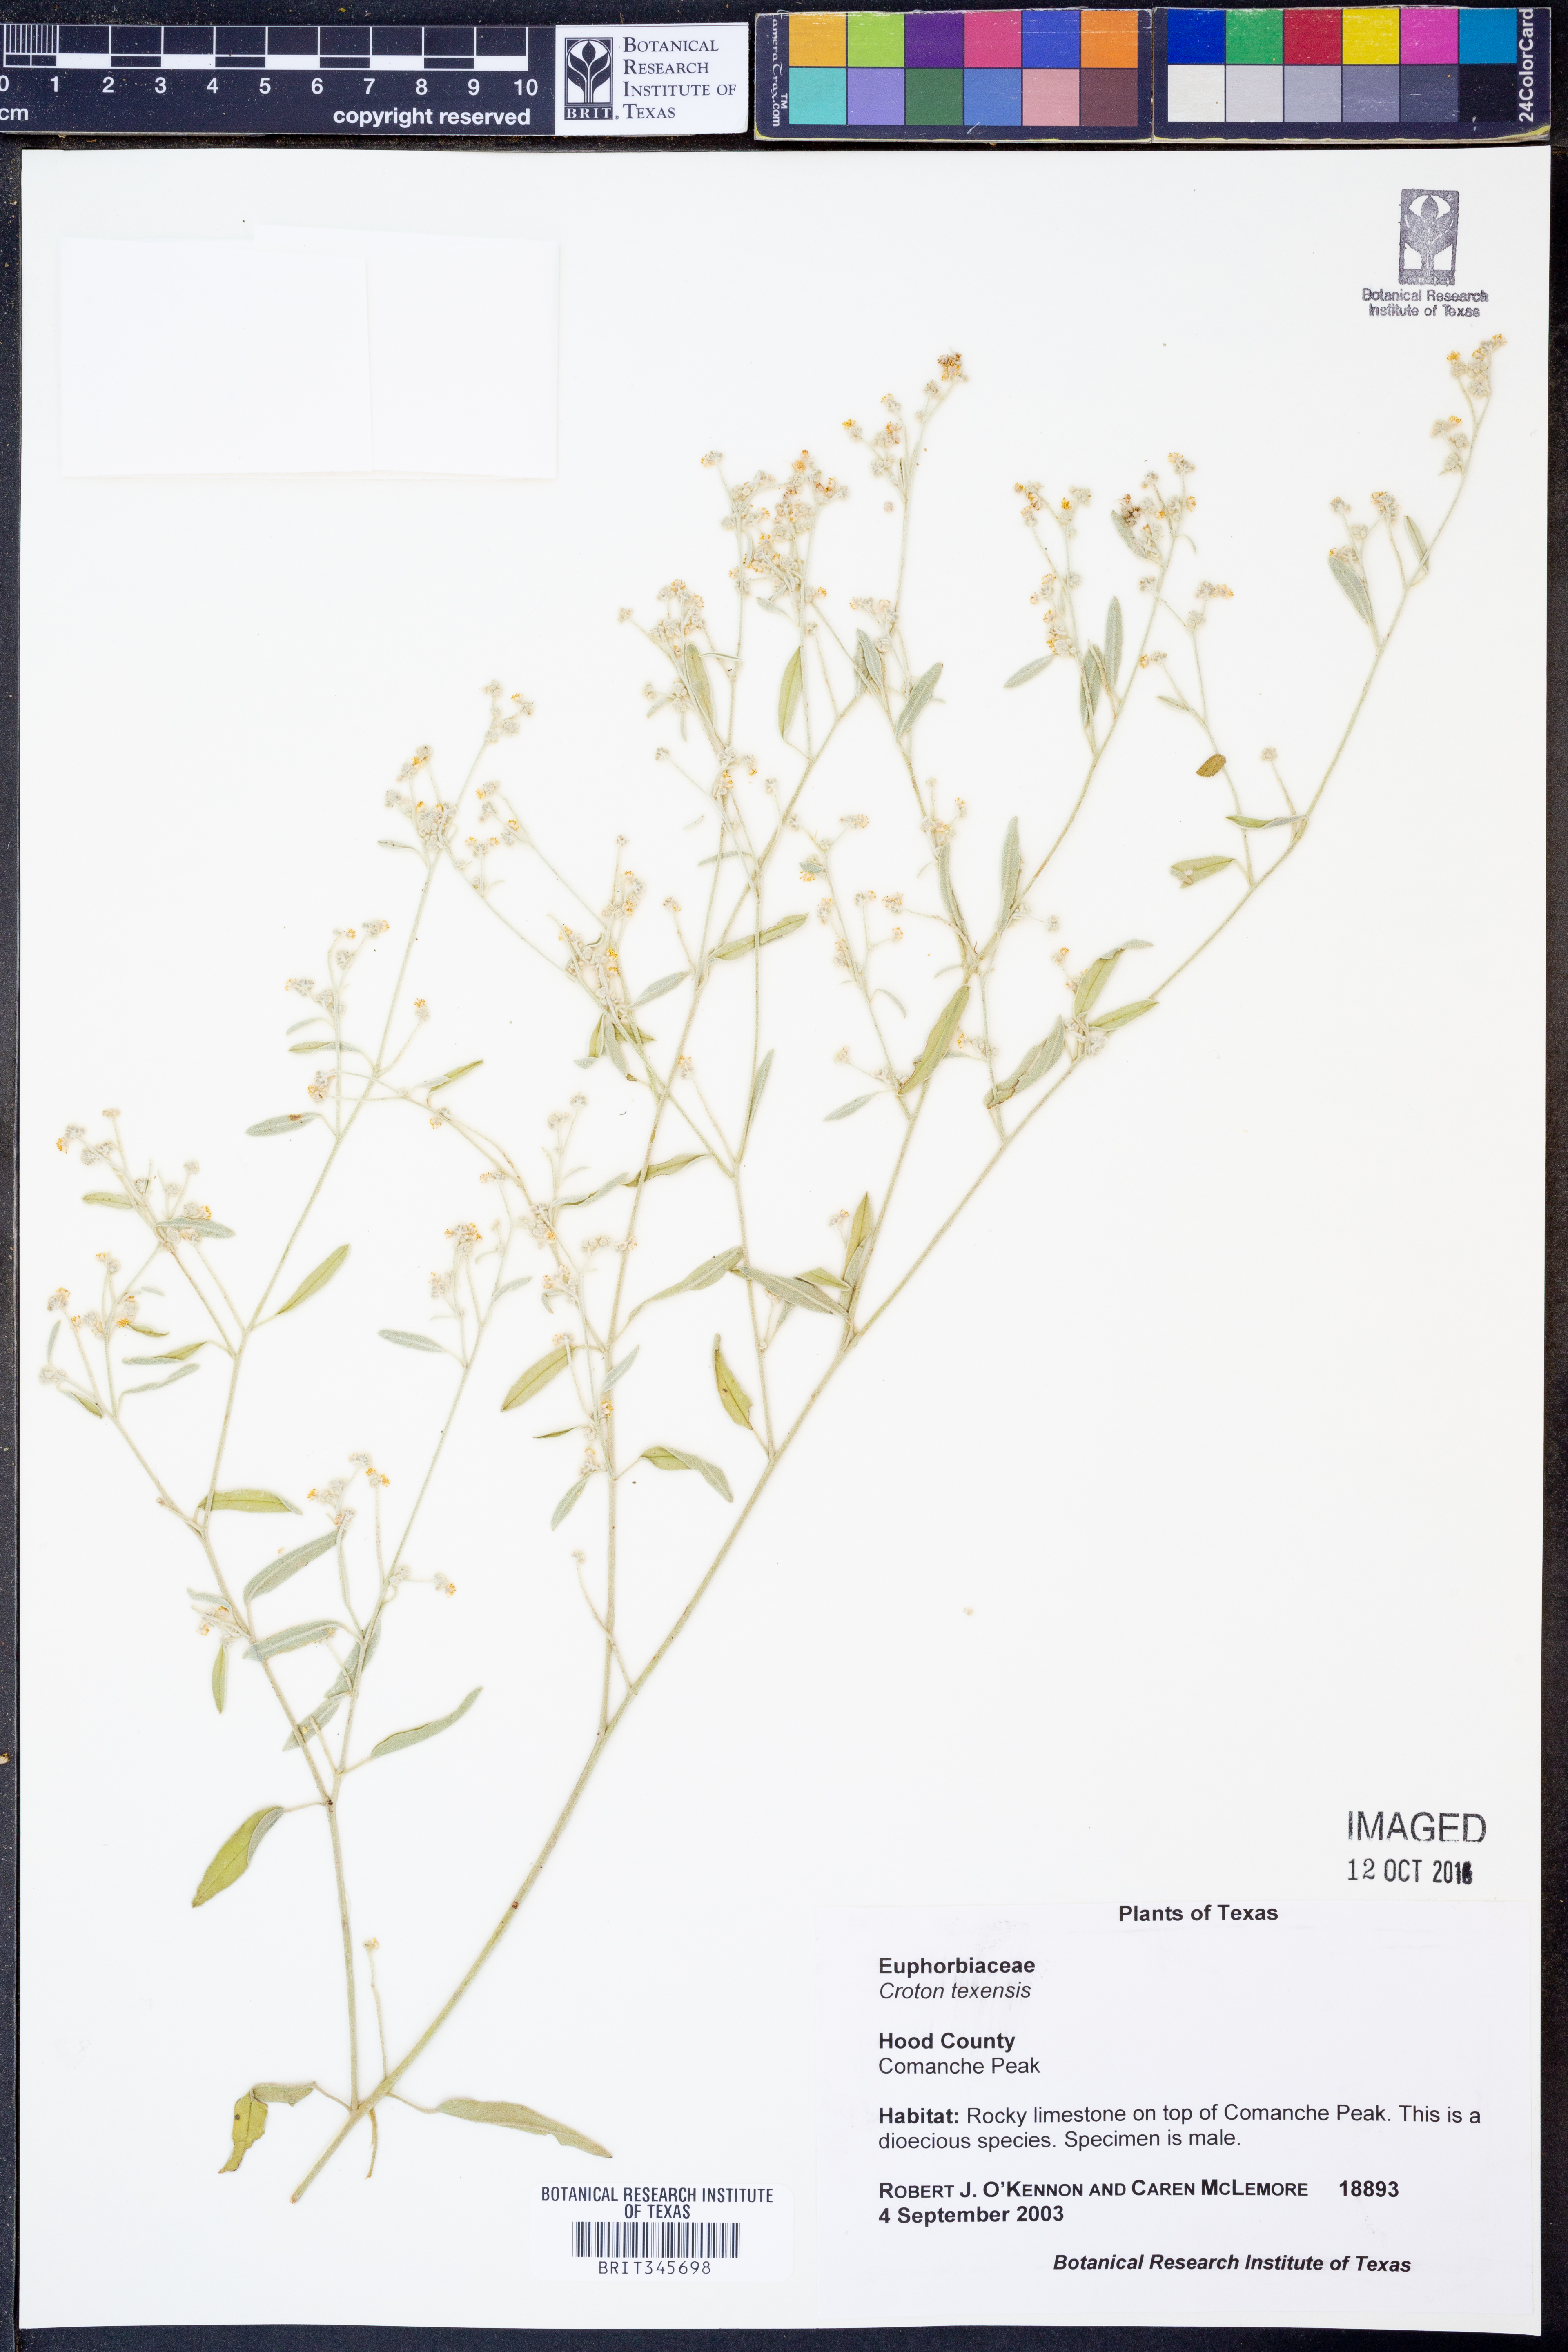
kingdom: Plantae
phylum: Tracheophyta
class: Magnoliopsida
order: Malpighiales
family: Euphorbiaceae
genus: Croton
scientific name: Croton texensis
